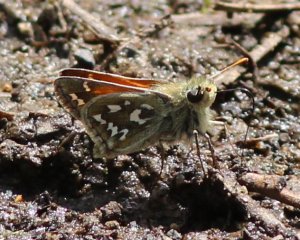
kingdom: Animalia
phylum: Arthropoda
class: Insecta
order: Lepidoptera
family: Hesperiidae
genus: Hesperia
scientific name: Hesperia nevada
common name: Nevada Skipper
